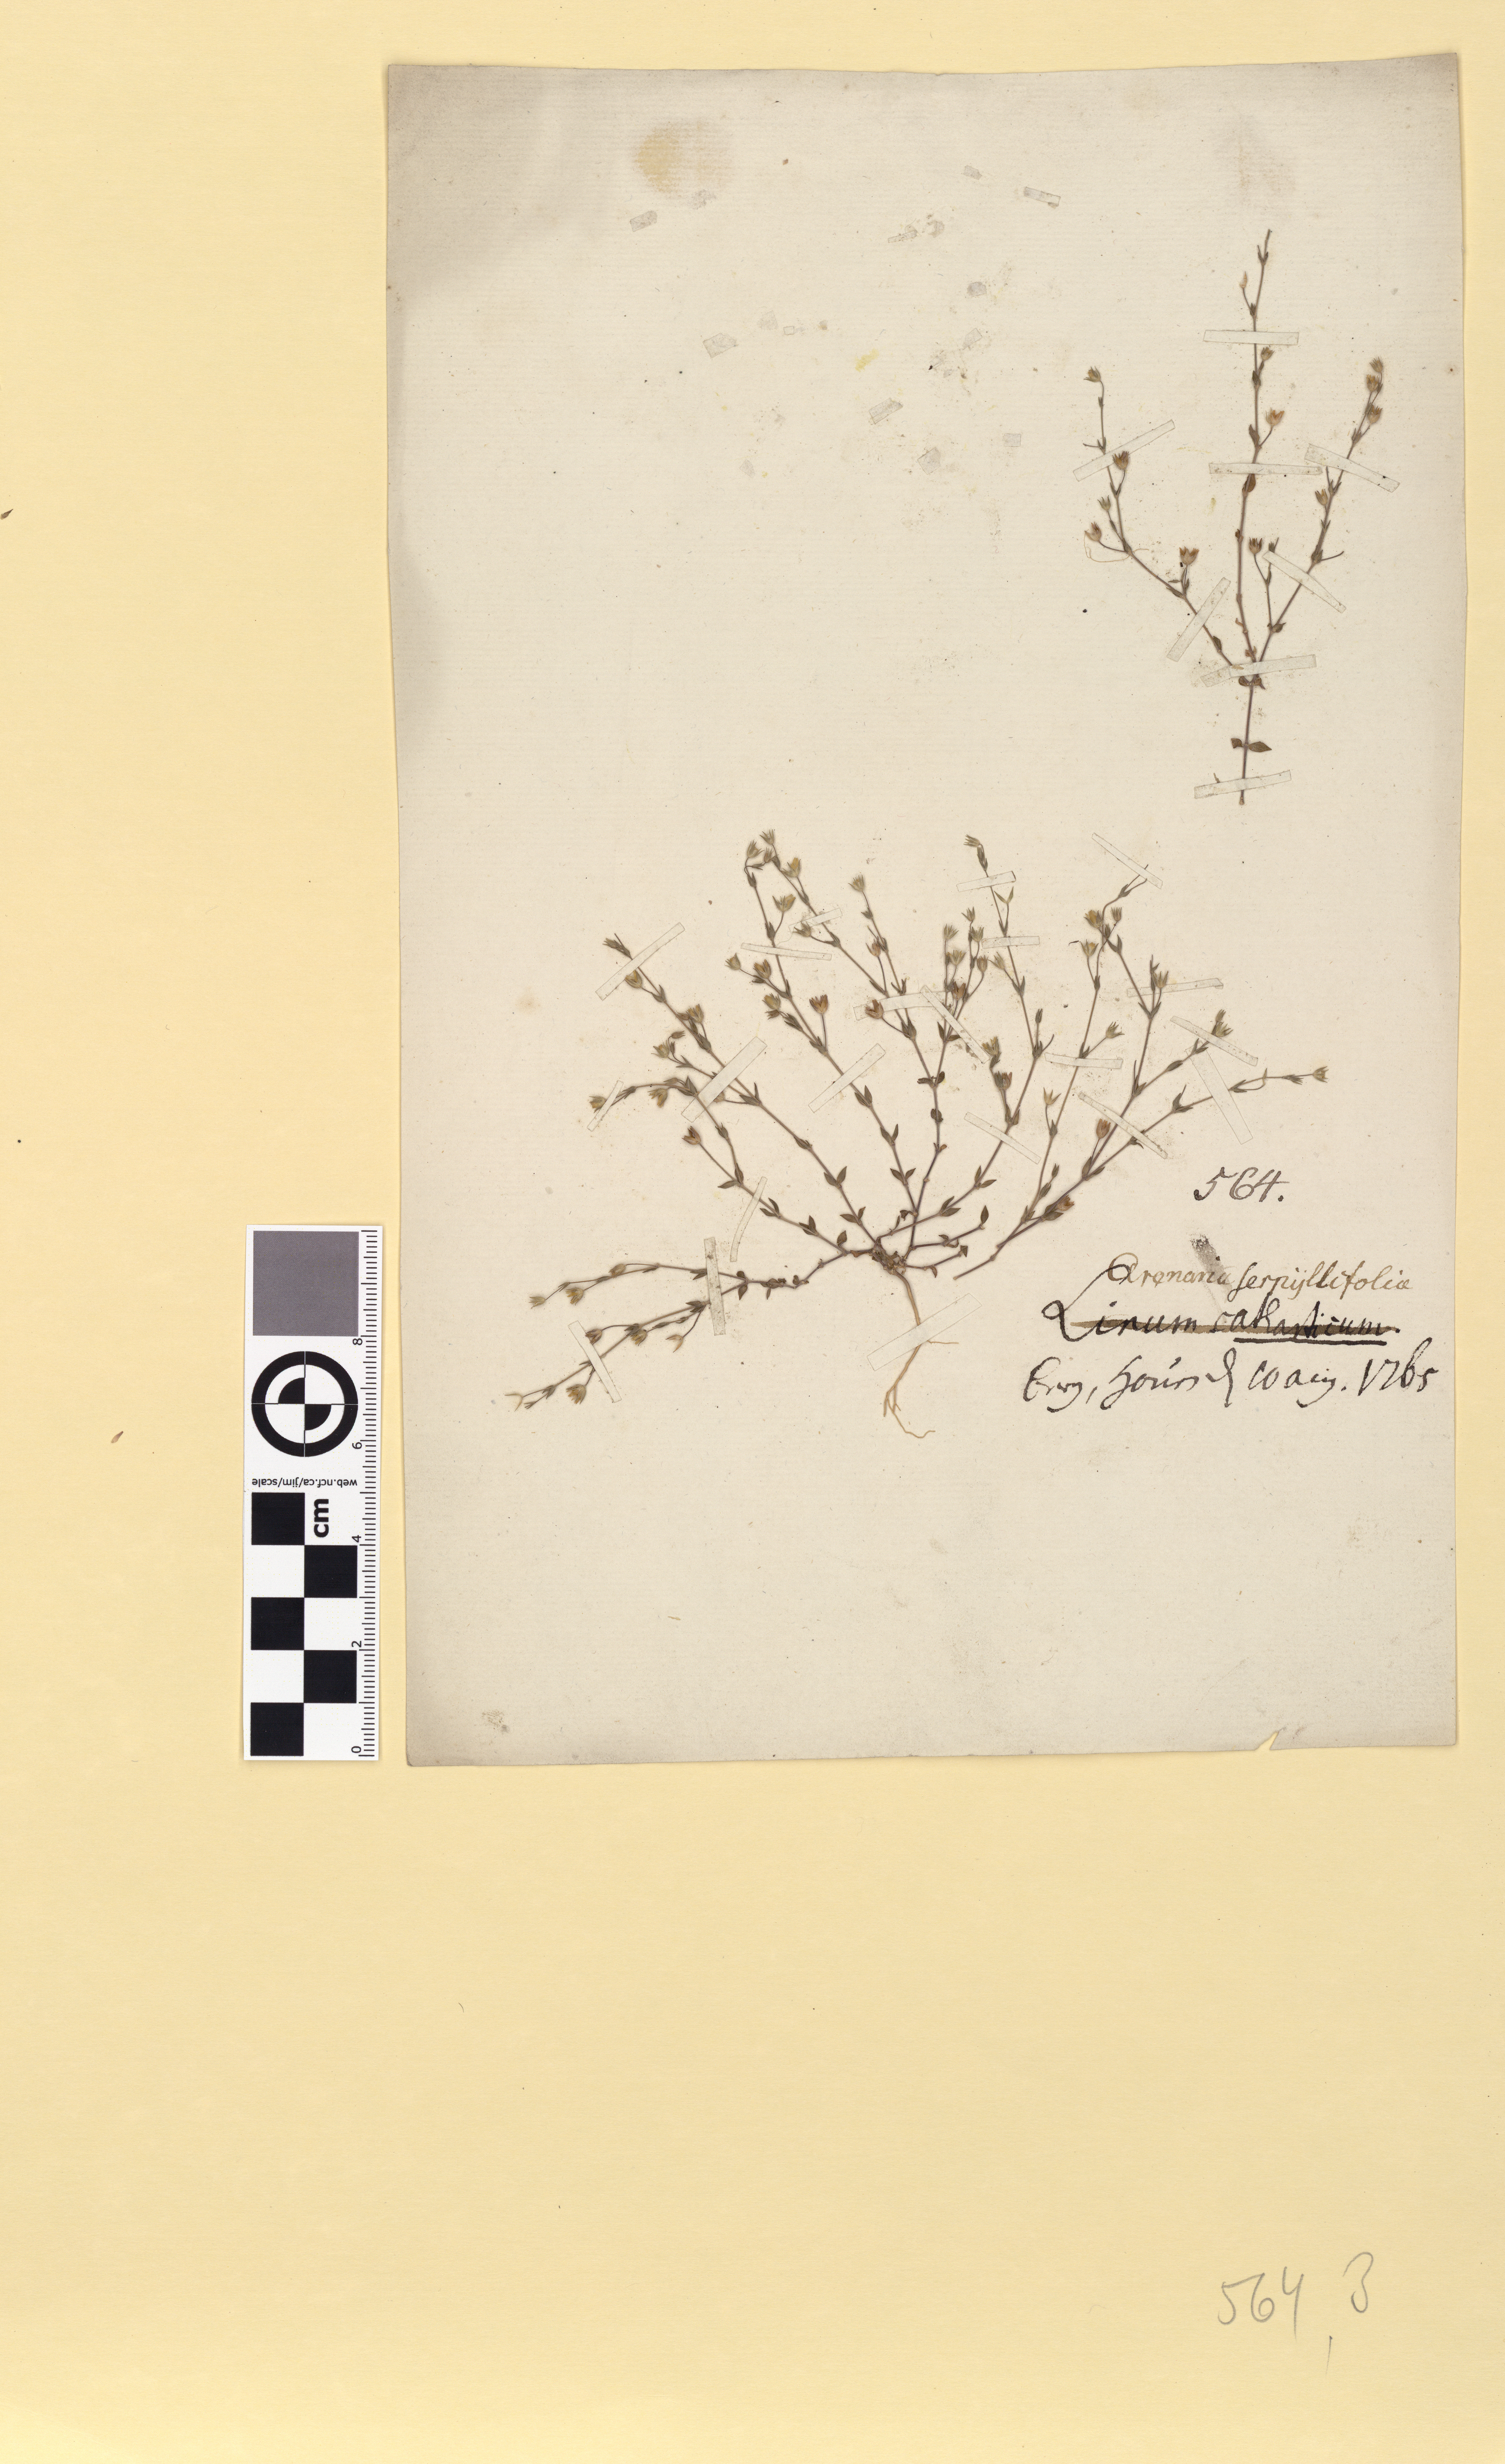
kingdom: Plantae
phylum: Tracheophyta
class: Magnoliopsida
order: Caryophyllales
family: Caryophyllaceae
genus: Arenaria
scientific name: Arenaria serpyllifolia
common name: Thyme-leaved sandwort
